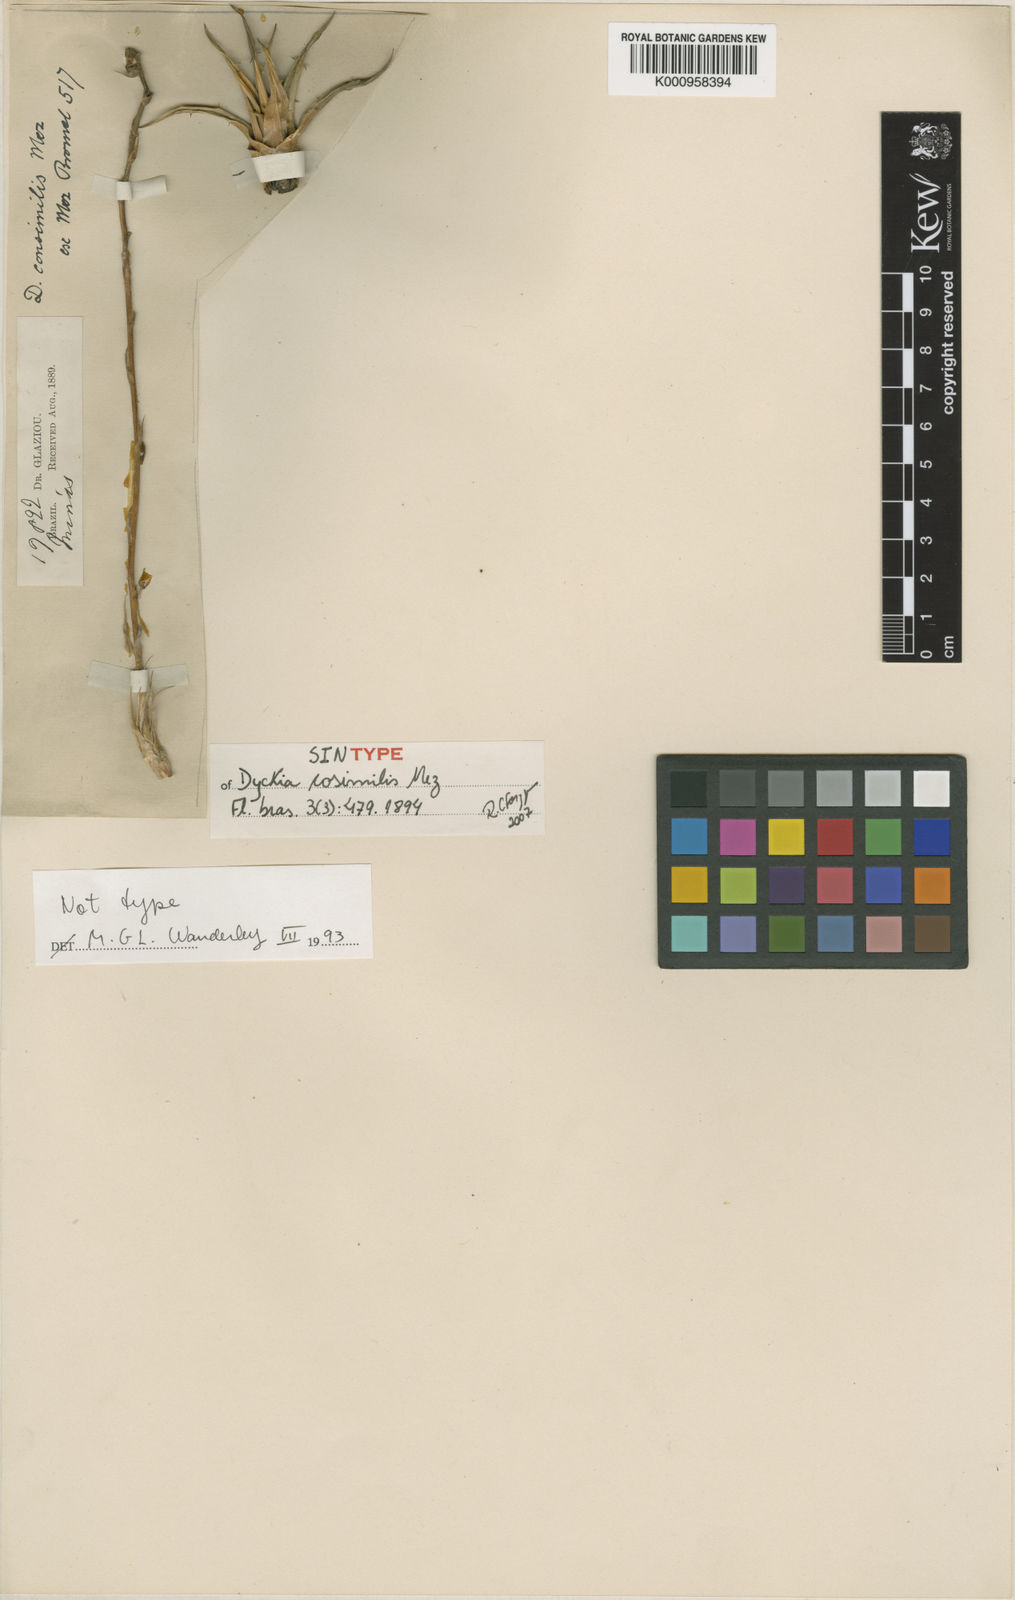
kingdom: Plantae
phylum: Tracheophyta
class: Liliopsida
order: Poales
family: Bromeliaceae
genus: Dyckia
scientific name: Dyckia consimilis
